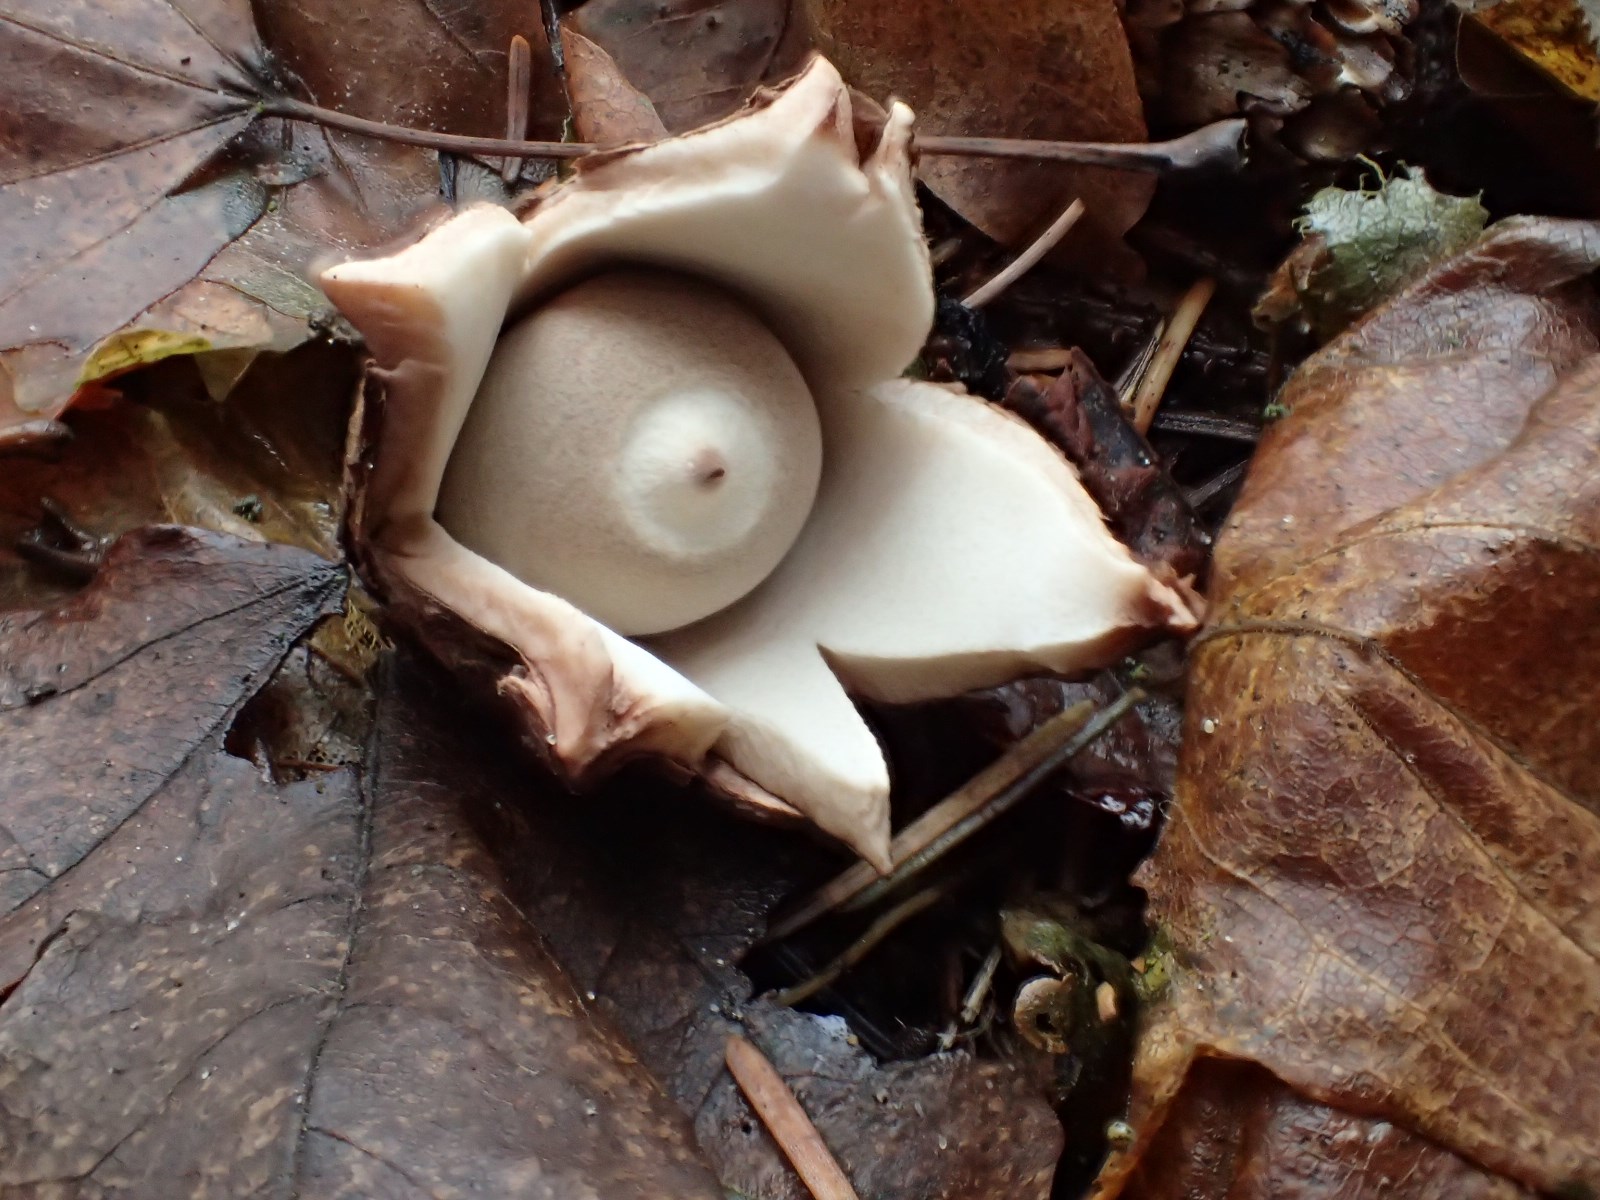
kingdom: Fungi
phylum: Basidiomycota
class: Agaricomycetes
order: Geastrales
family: Geastraceae
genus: Geastrum
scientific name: Geastrum michelianum
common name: kødet stjernebold
